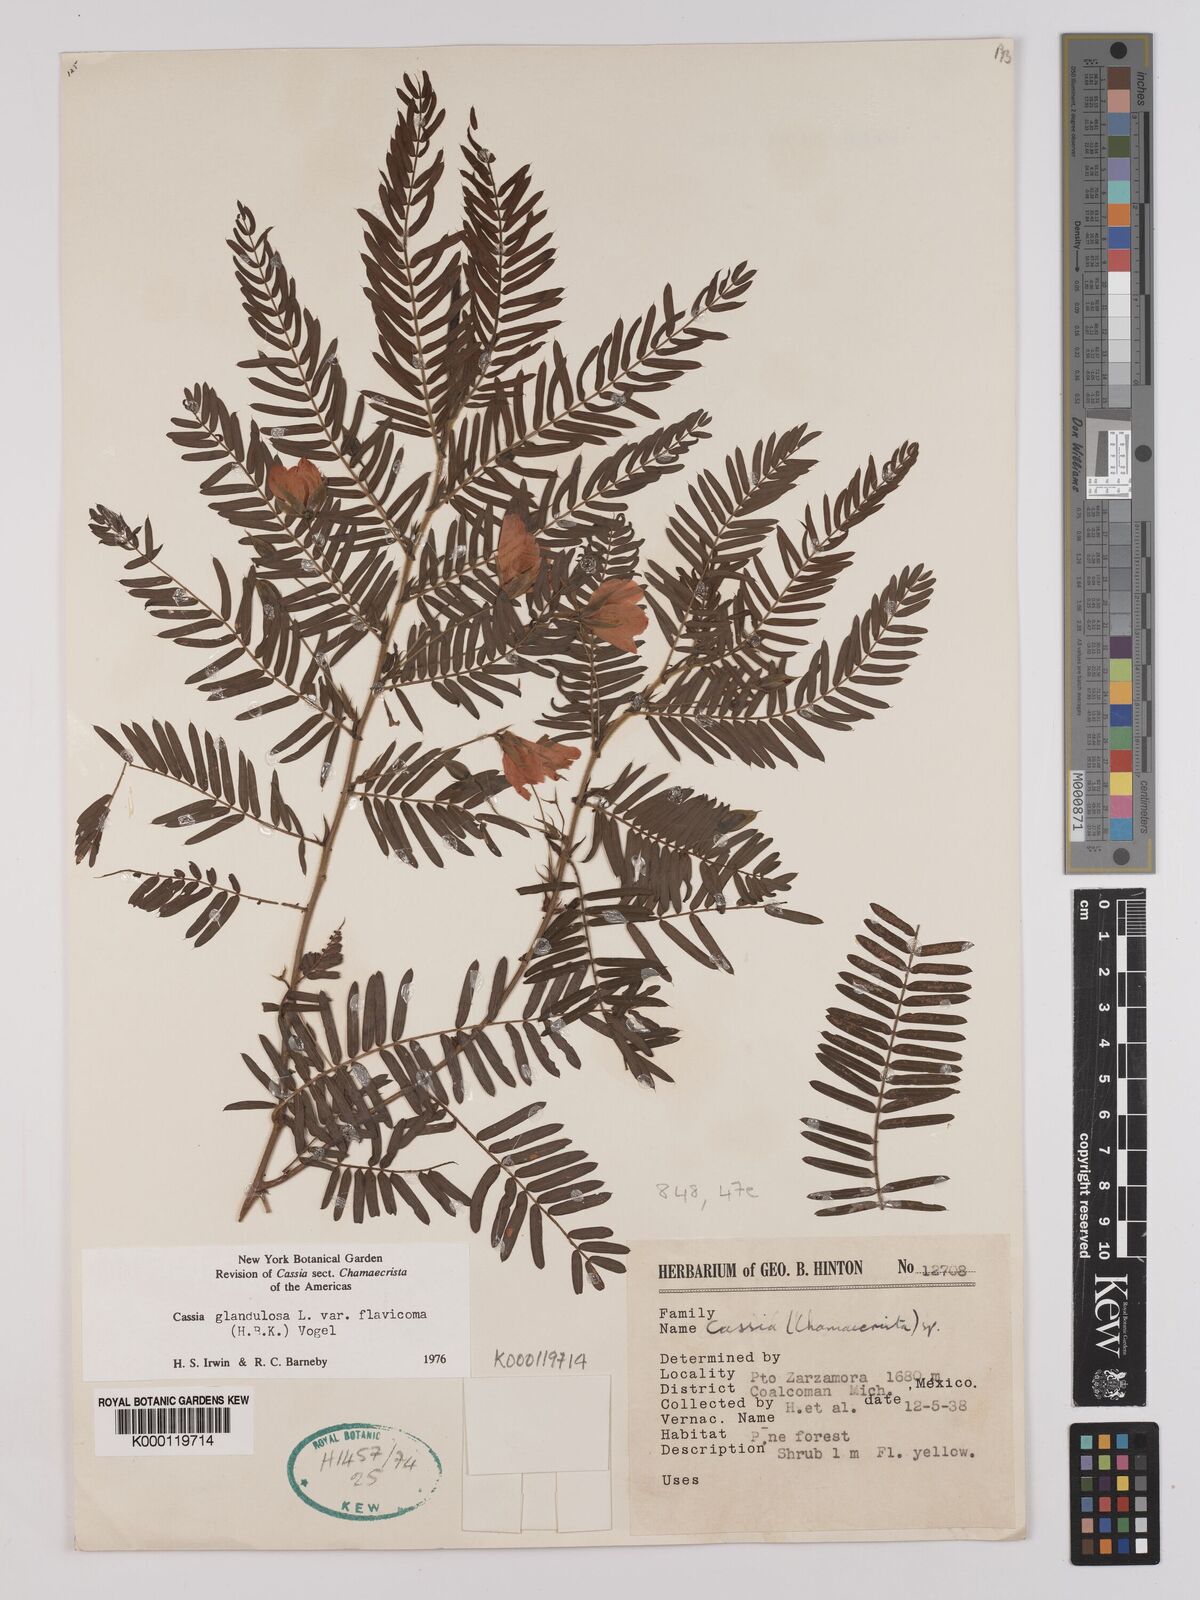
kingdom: Plantae
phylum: Tracheophyta
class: Magnoliopsida
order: Fabales
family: Fabaceae
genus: Chamaecrista
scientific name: Chamaecrista glandulosa
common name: Wild peas
